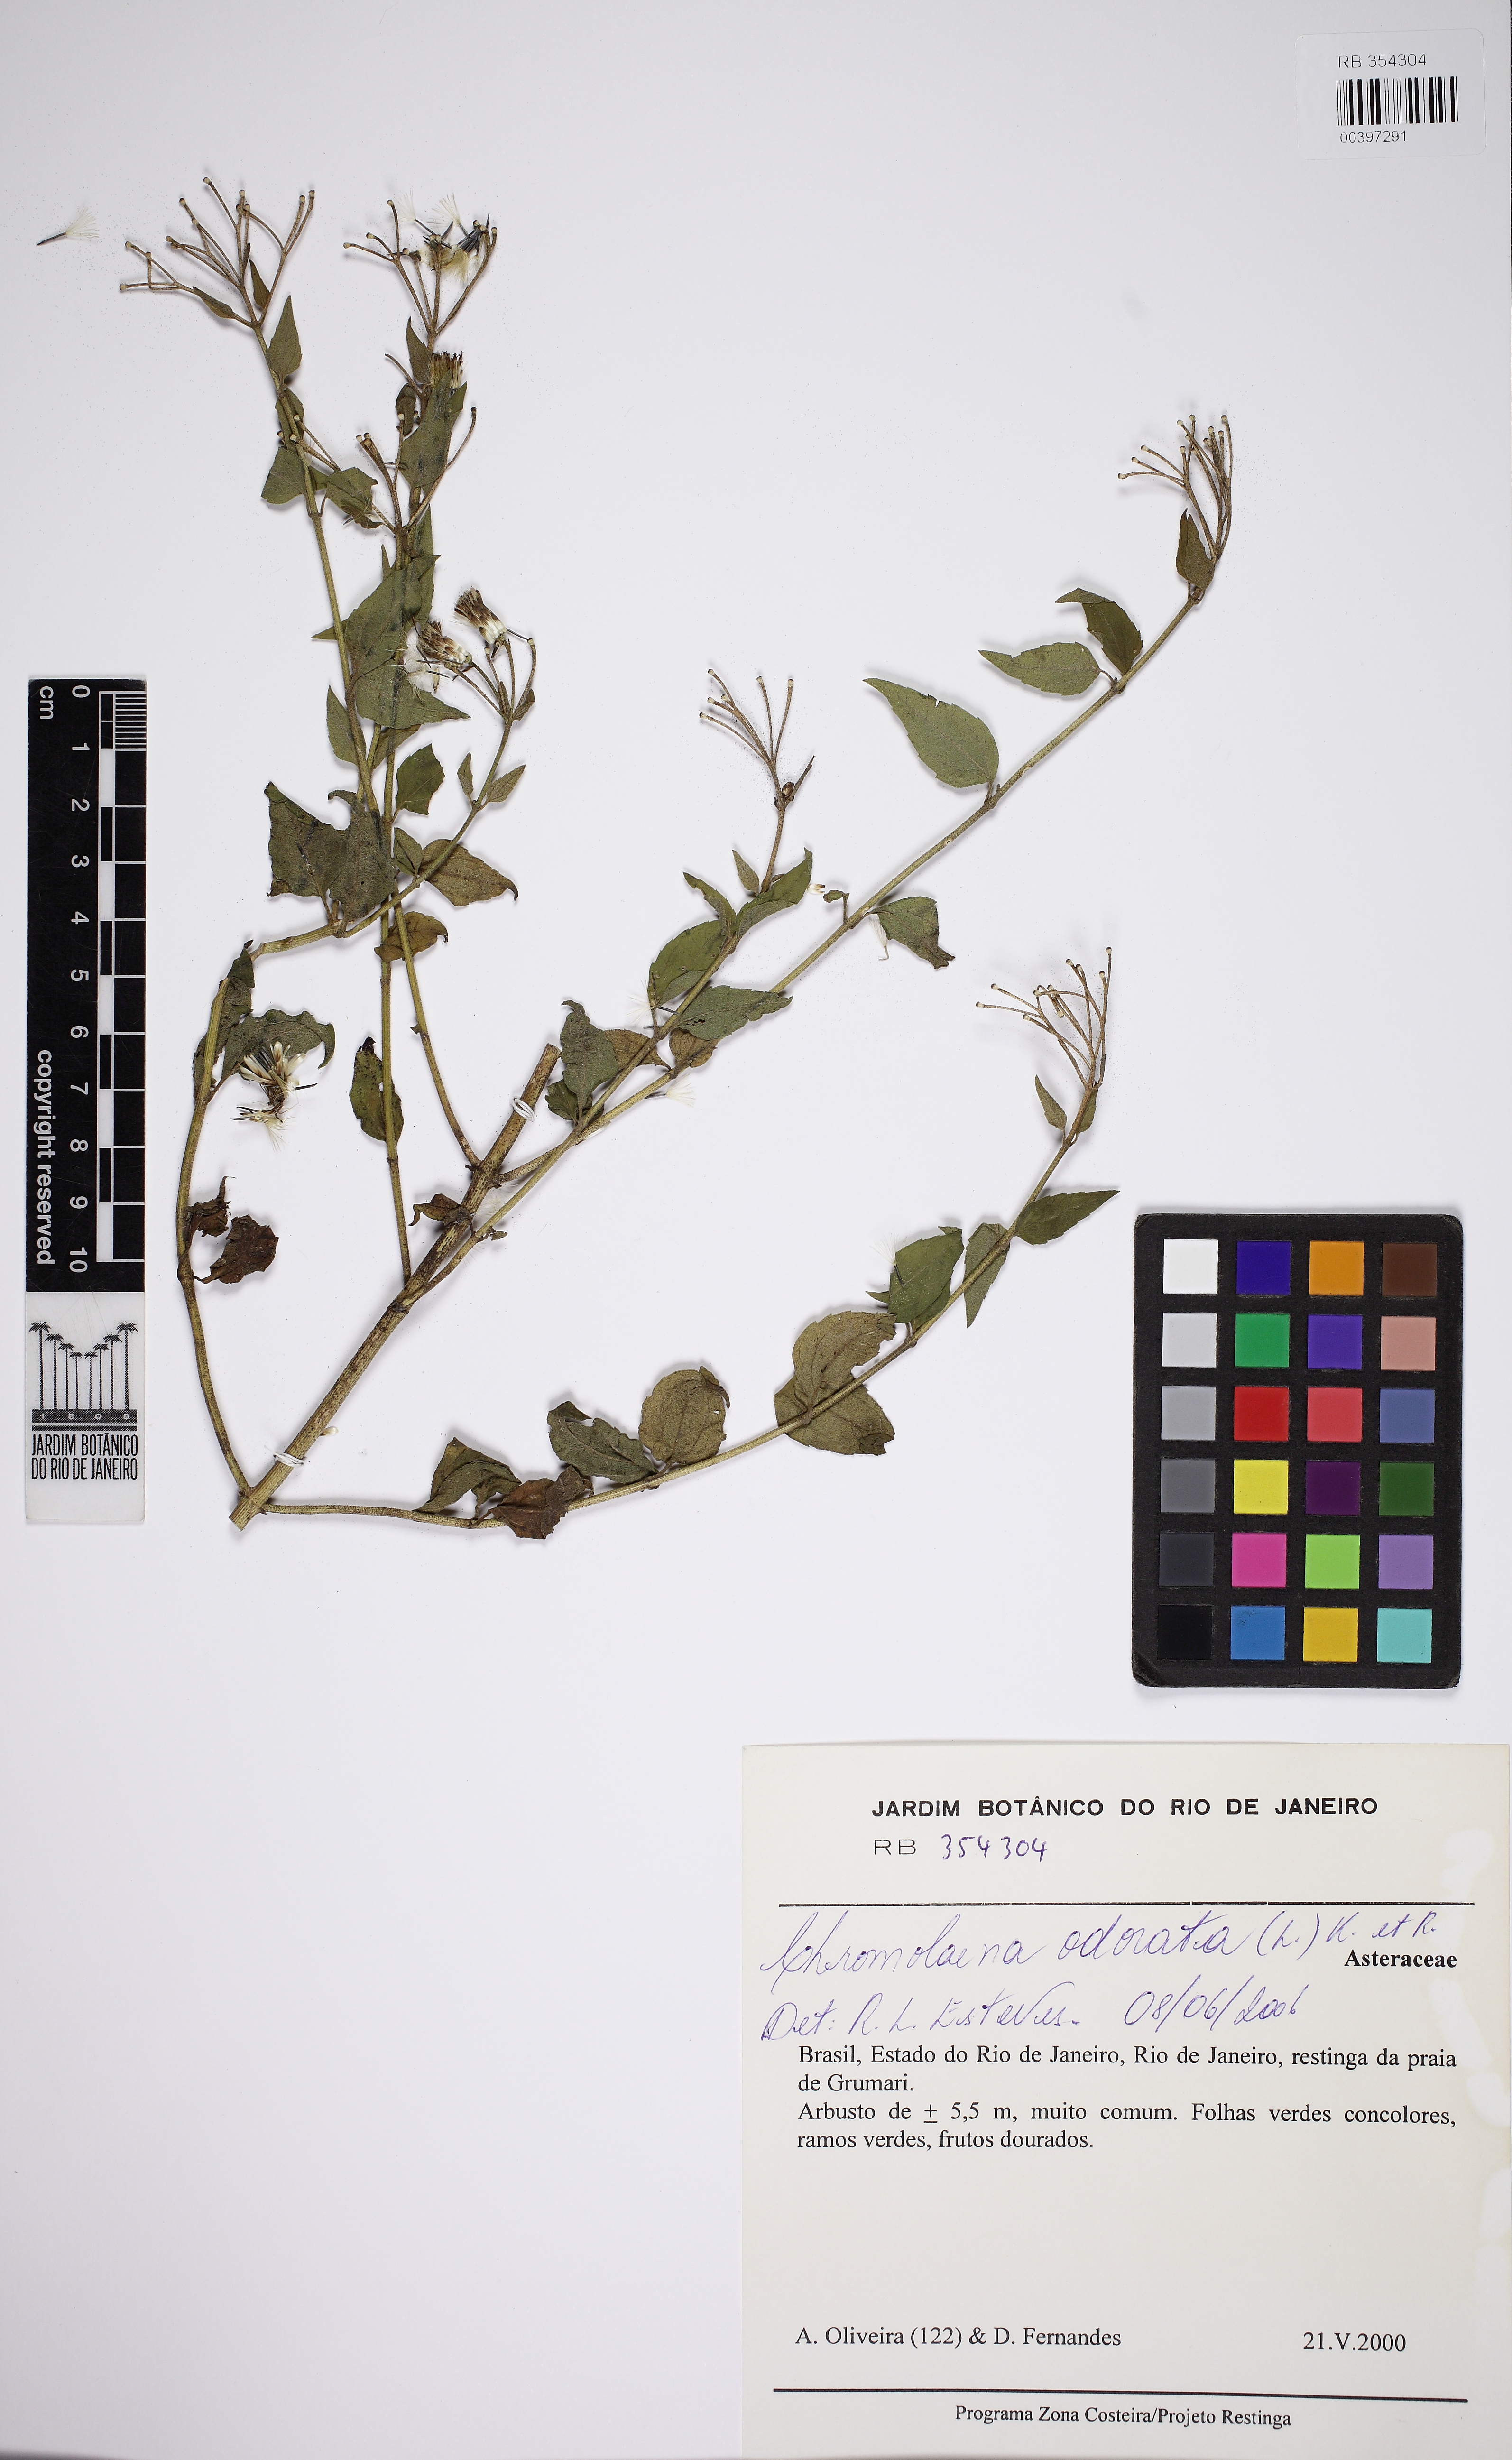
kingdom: Plantae
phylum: Tracheophyta
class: Magnoliopsida
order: Asterales
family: Asteraceae
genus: Chromolaena
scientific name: Chromolaena odorata
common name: Siamweed
